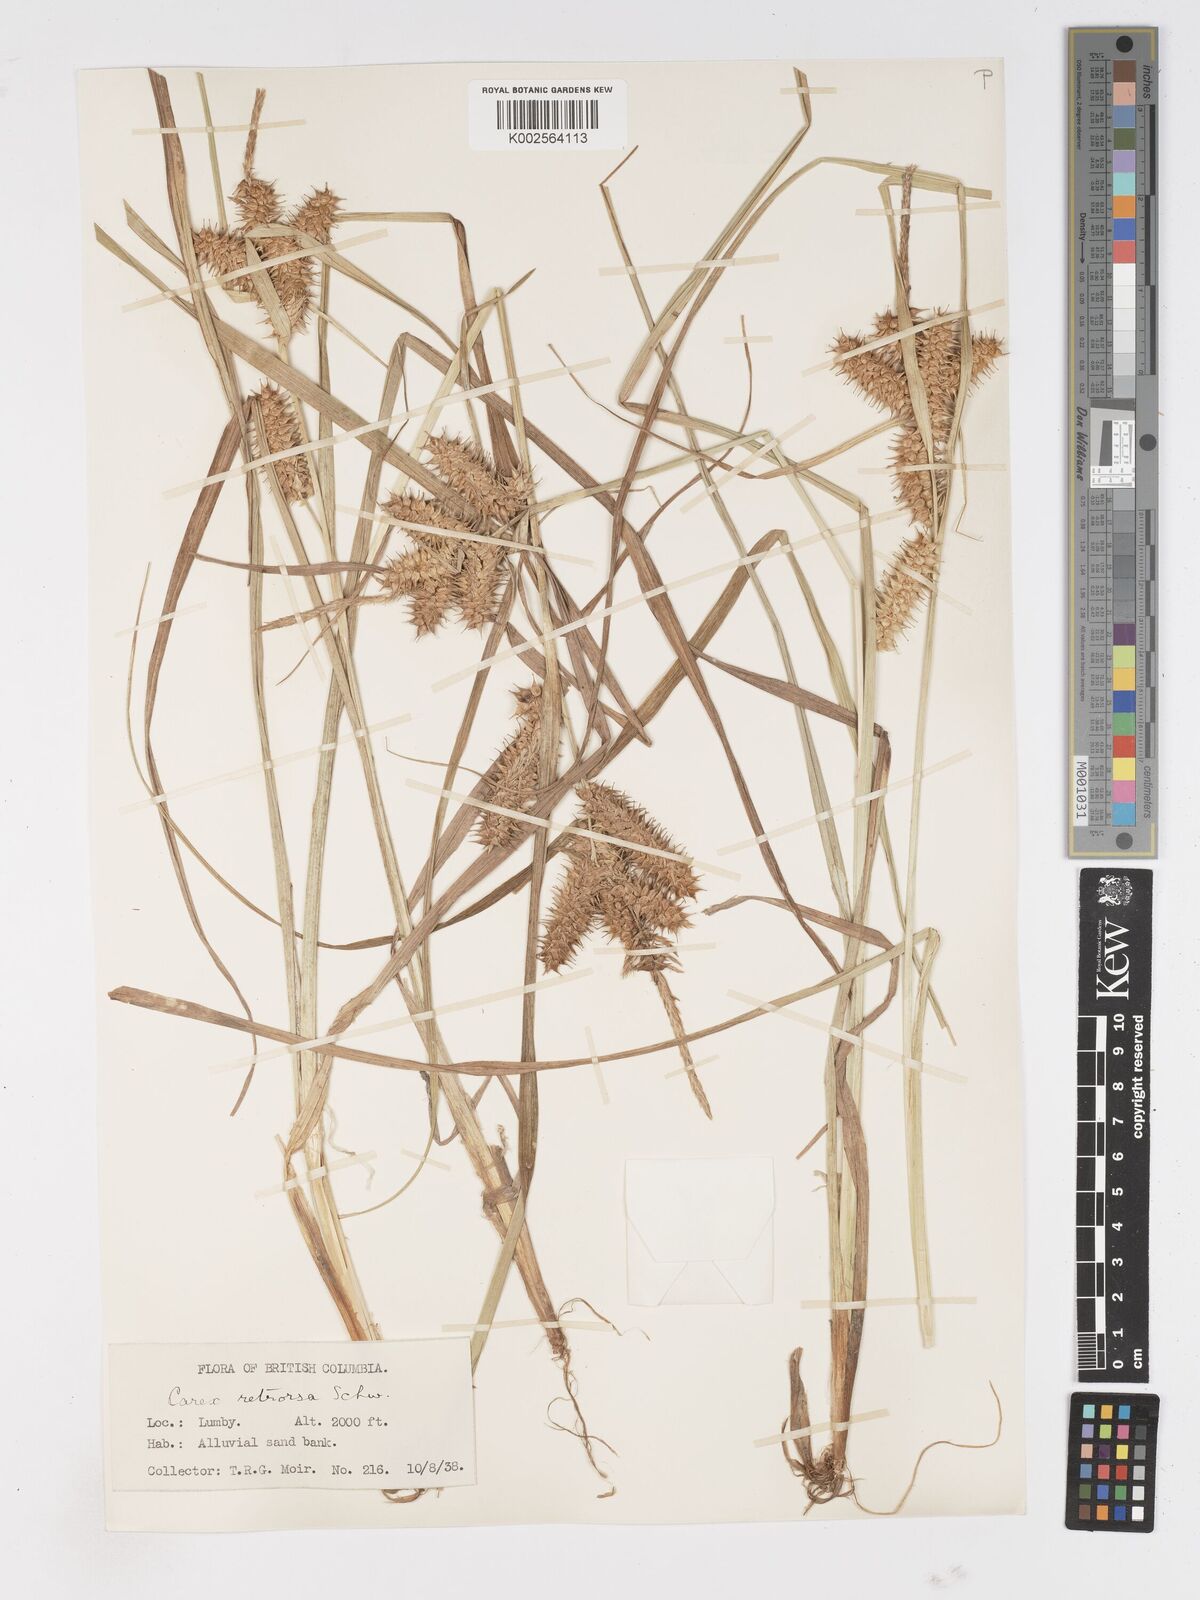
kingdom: Plantae
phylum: Tracheophyta
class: Liliopsida
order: Poales
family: Cyperaceae
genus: Carex
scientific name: Carex retrorsa
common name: Knot-sheath sedge
